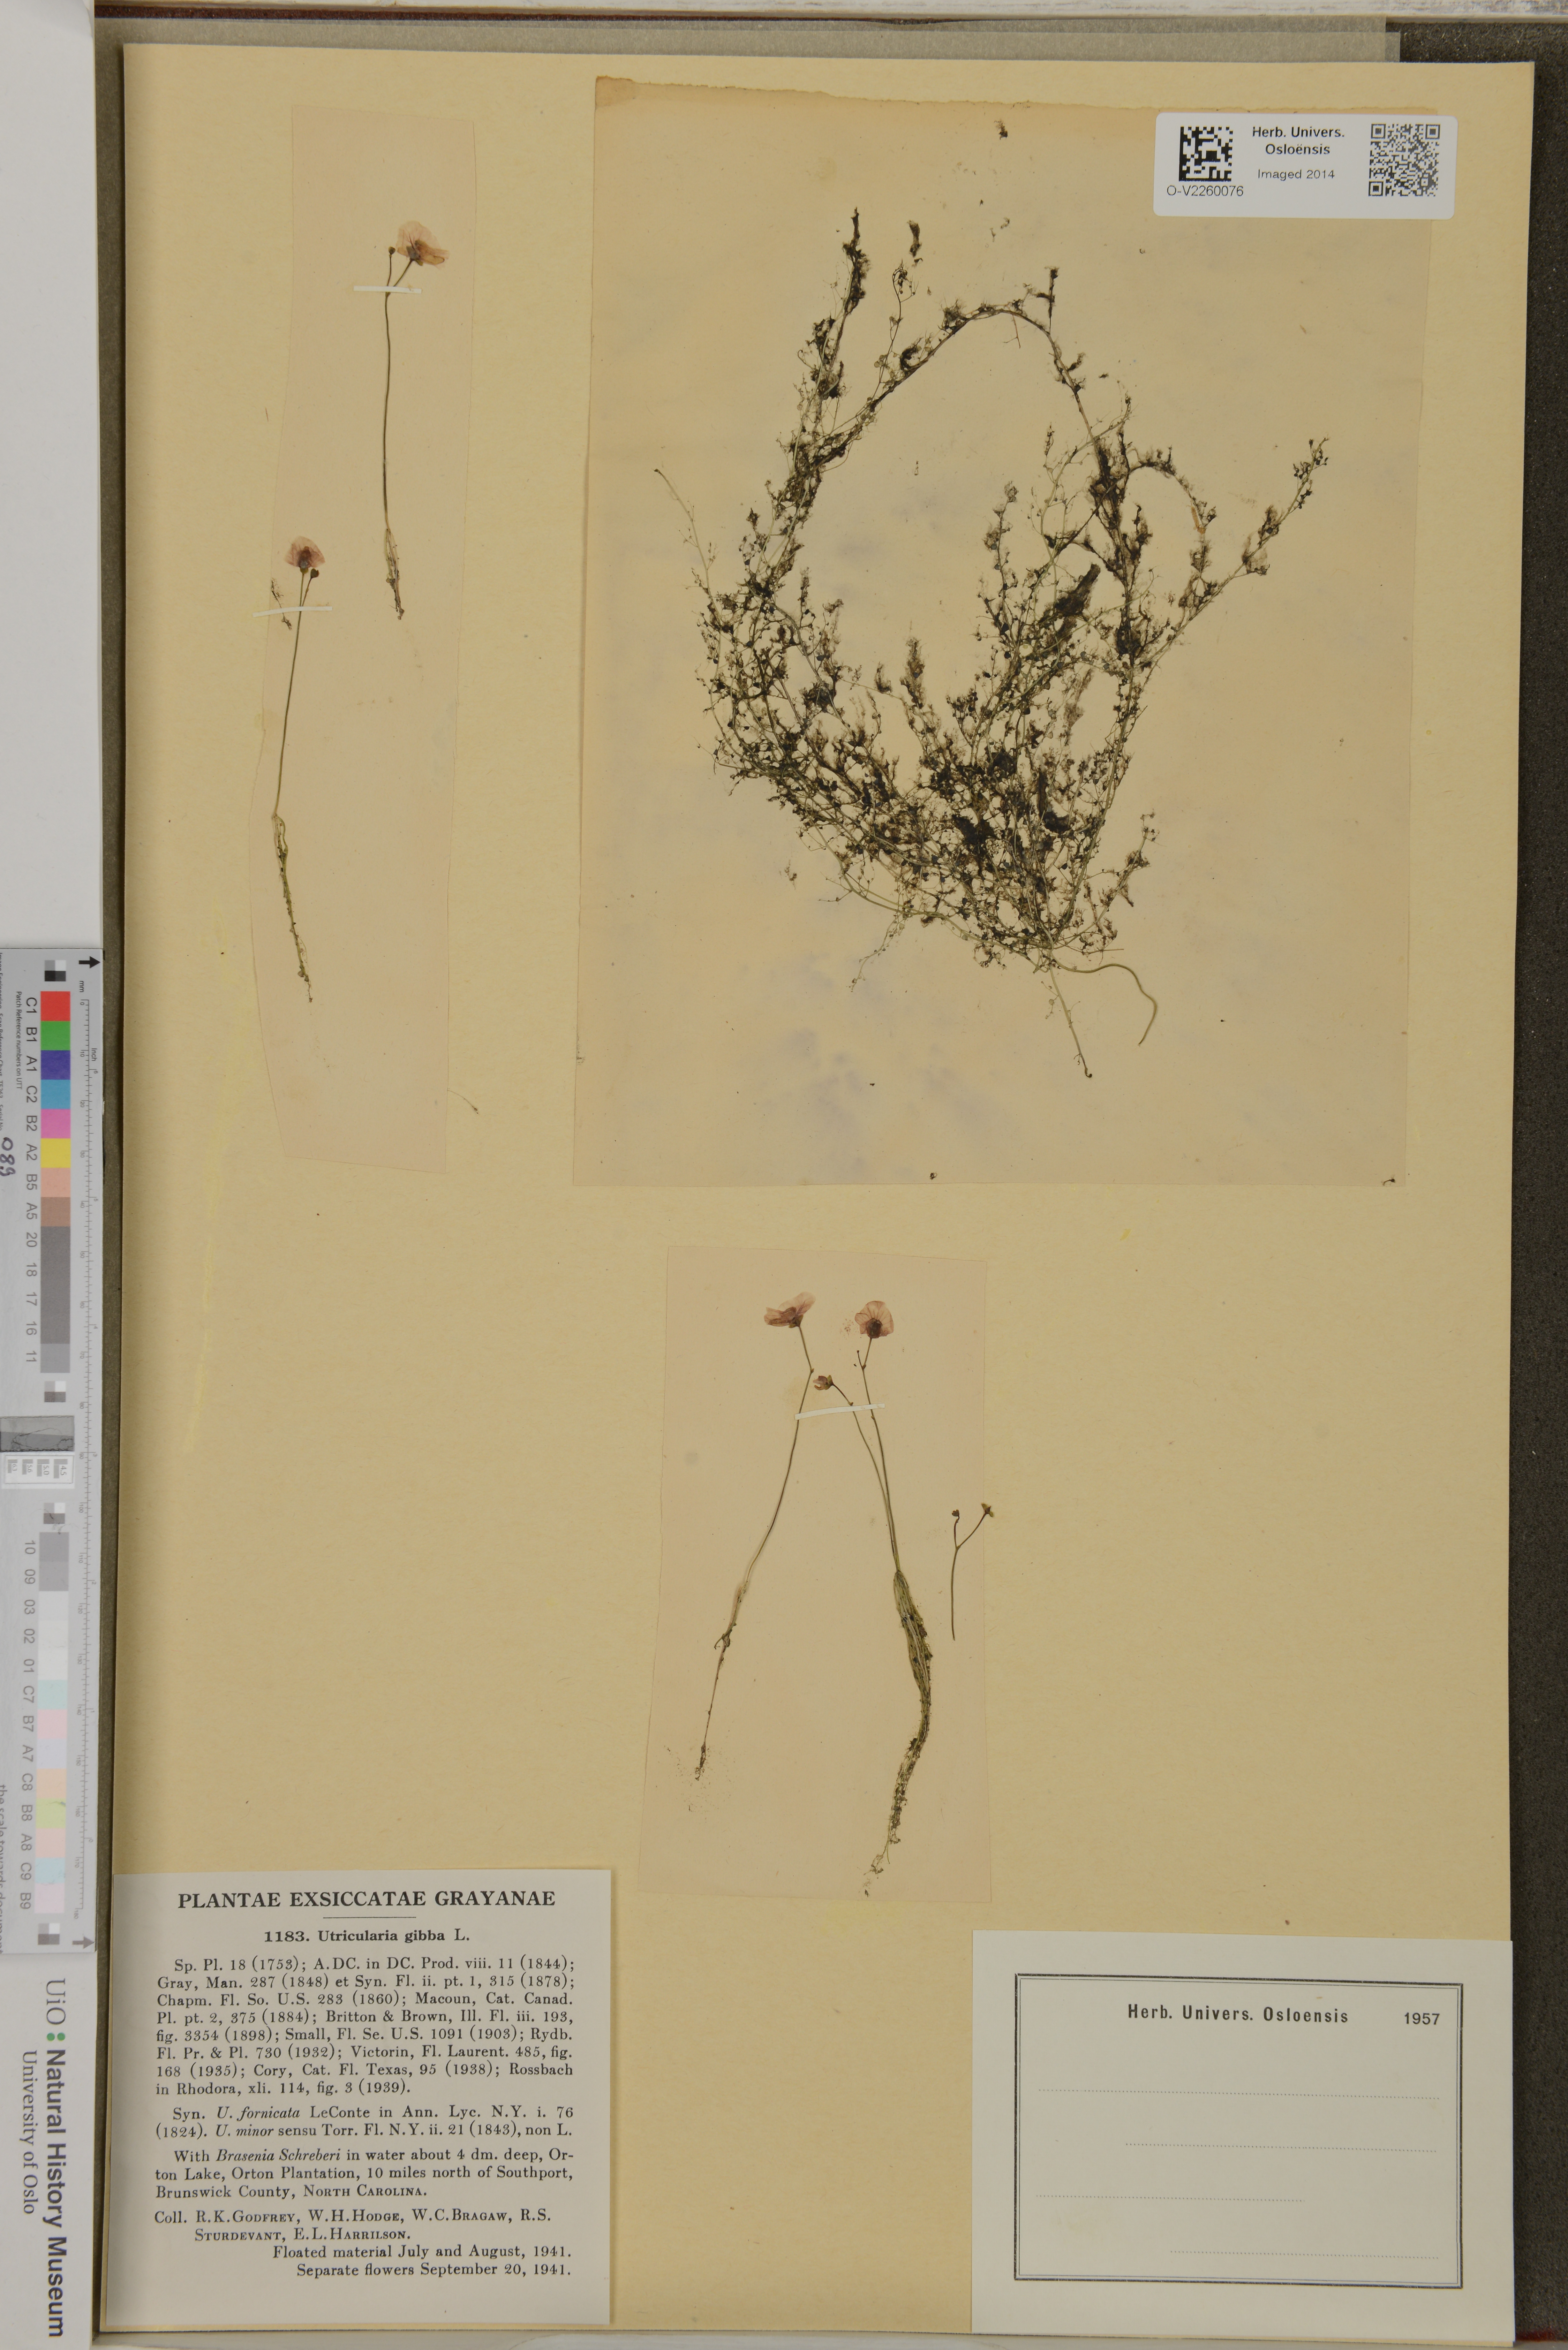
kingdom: Plantae
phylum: Tracheophyta
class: Magnoliopsida
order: Lamiales
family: Lentibulariaceae
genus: Utricularia
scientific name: Utricularia gibba
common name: Humped bladderwort
